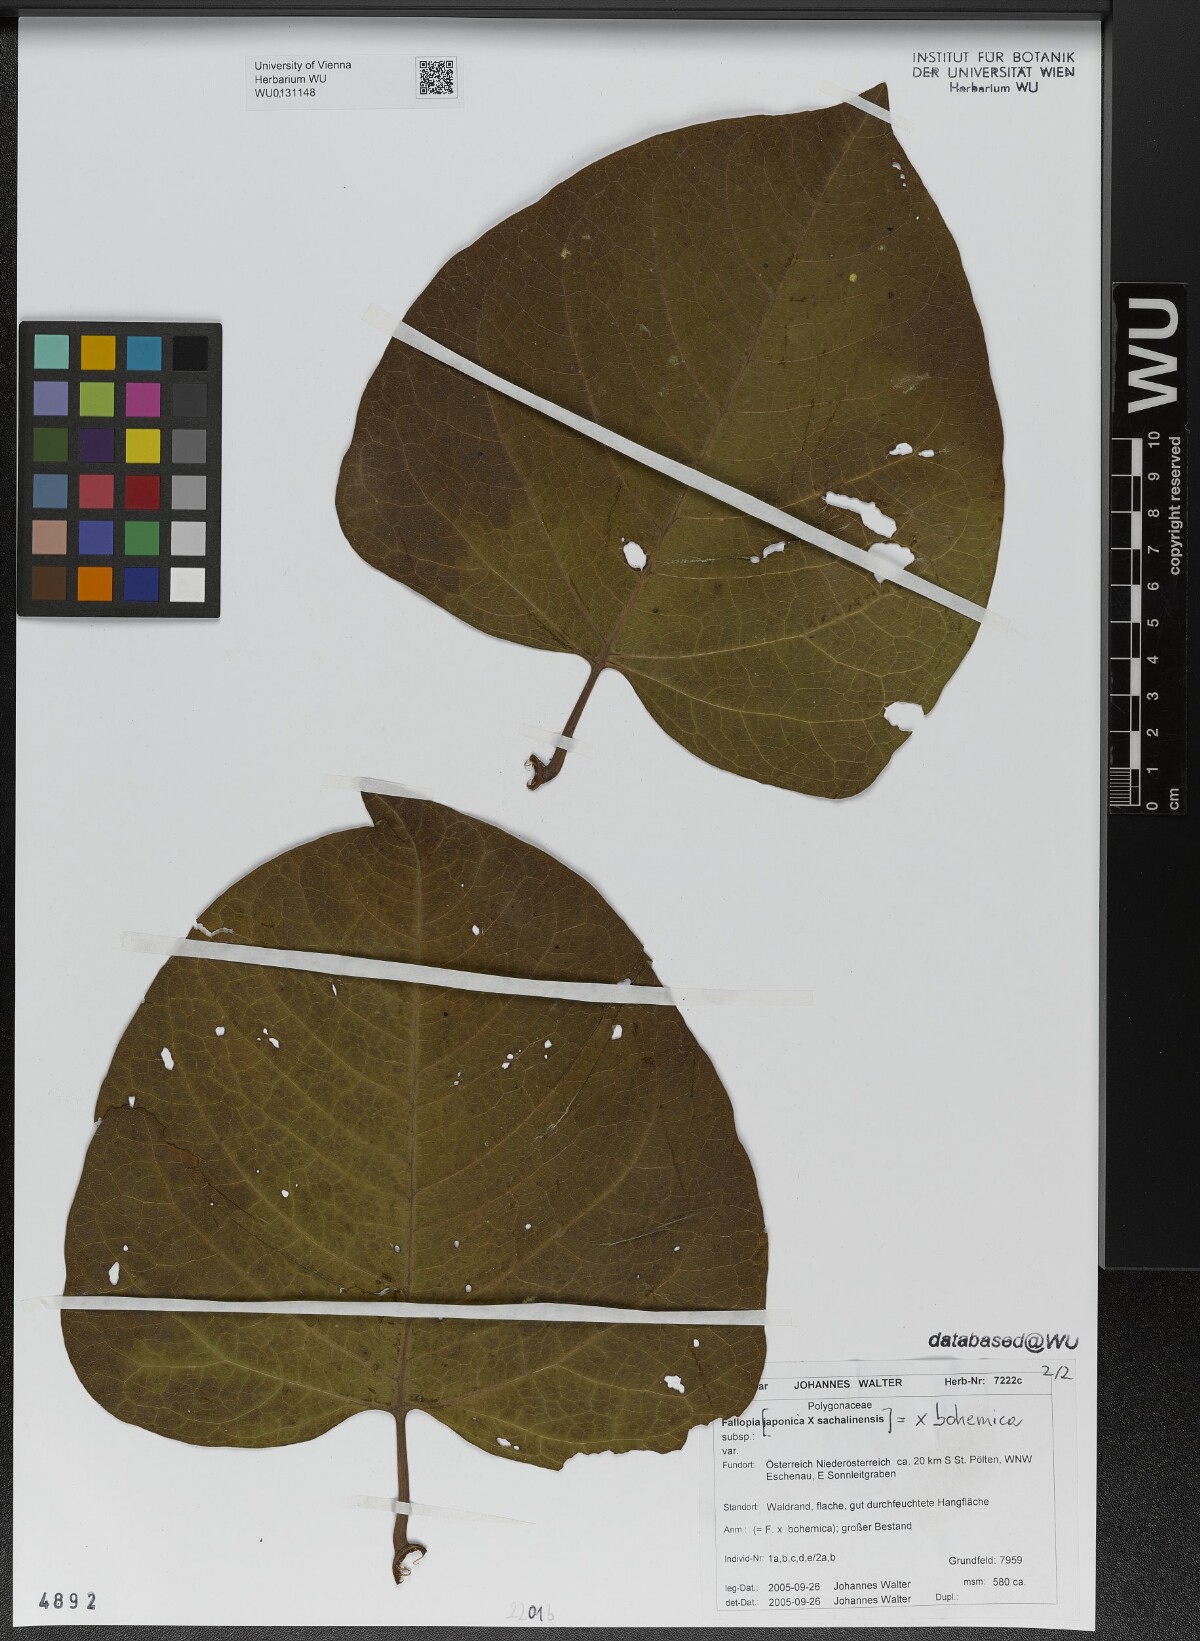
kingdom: Plantae
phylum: Tracheophyta
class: Magnoliopsida
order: Caryophyllales
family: Polygonaceae
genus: Reynoutria
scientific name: Reynoutria bohemica
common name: Bohemian knotweed
